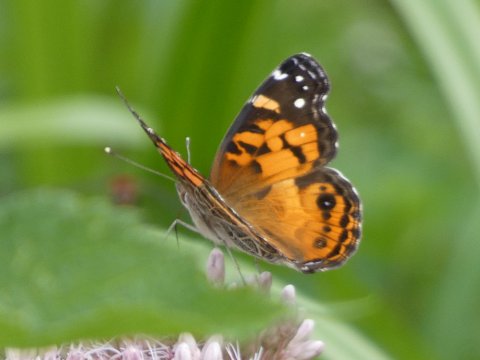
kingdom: Animalia
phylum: Arthropoda
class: Insecta
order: Lepidoptera
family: Nymphalidae
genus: Vanessa
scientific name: Vanessa virginiensis
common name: American Lady
